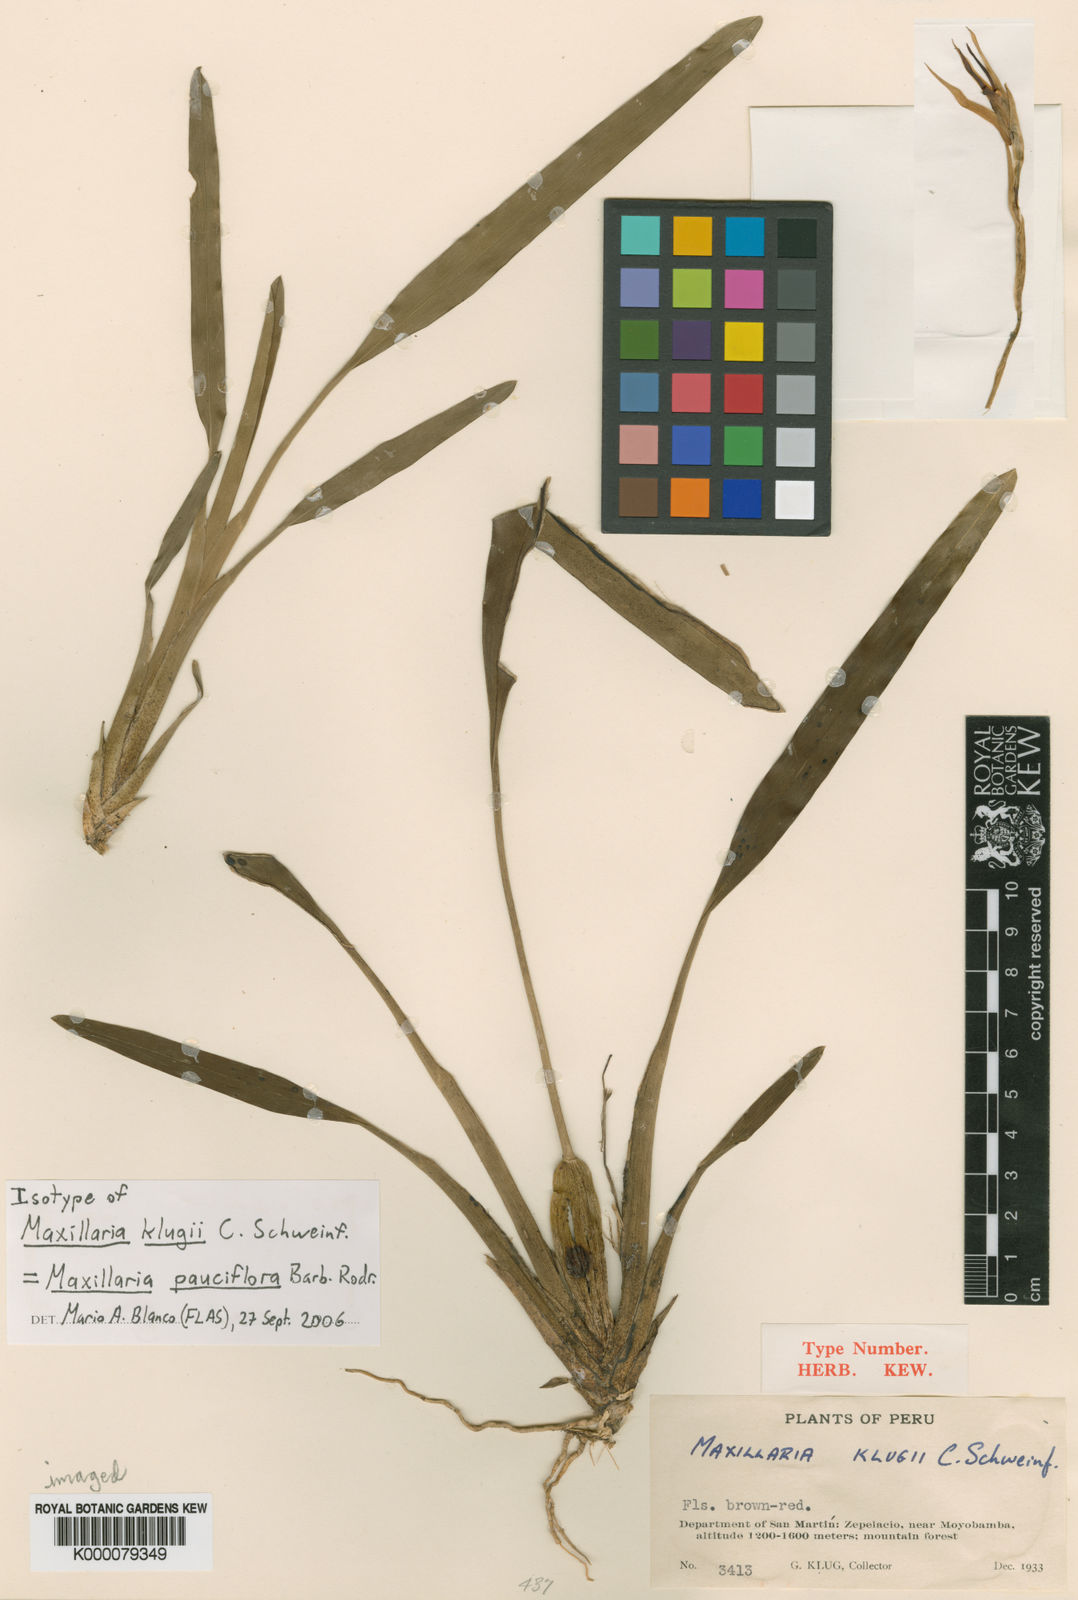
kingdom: Plantae
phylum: Tracheophyta
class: Liliopsida
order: Asparagales
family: Orchidaceae
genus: Maxillaria
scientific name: Maxillaria pauciflora
